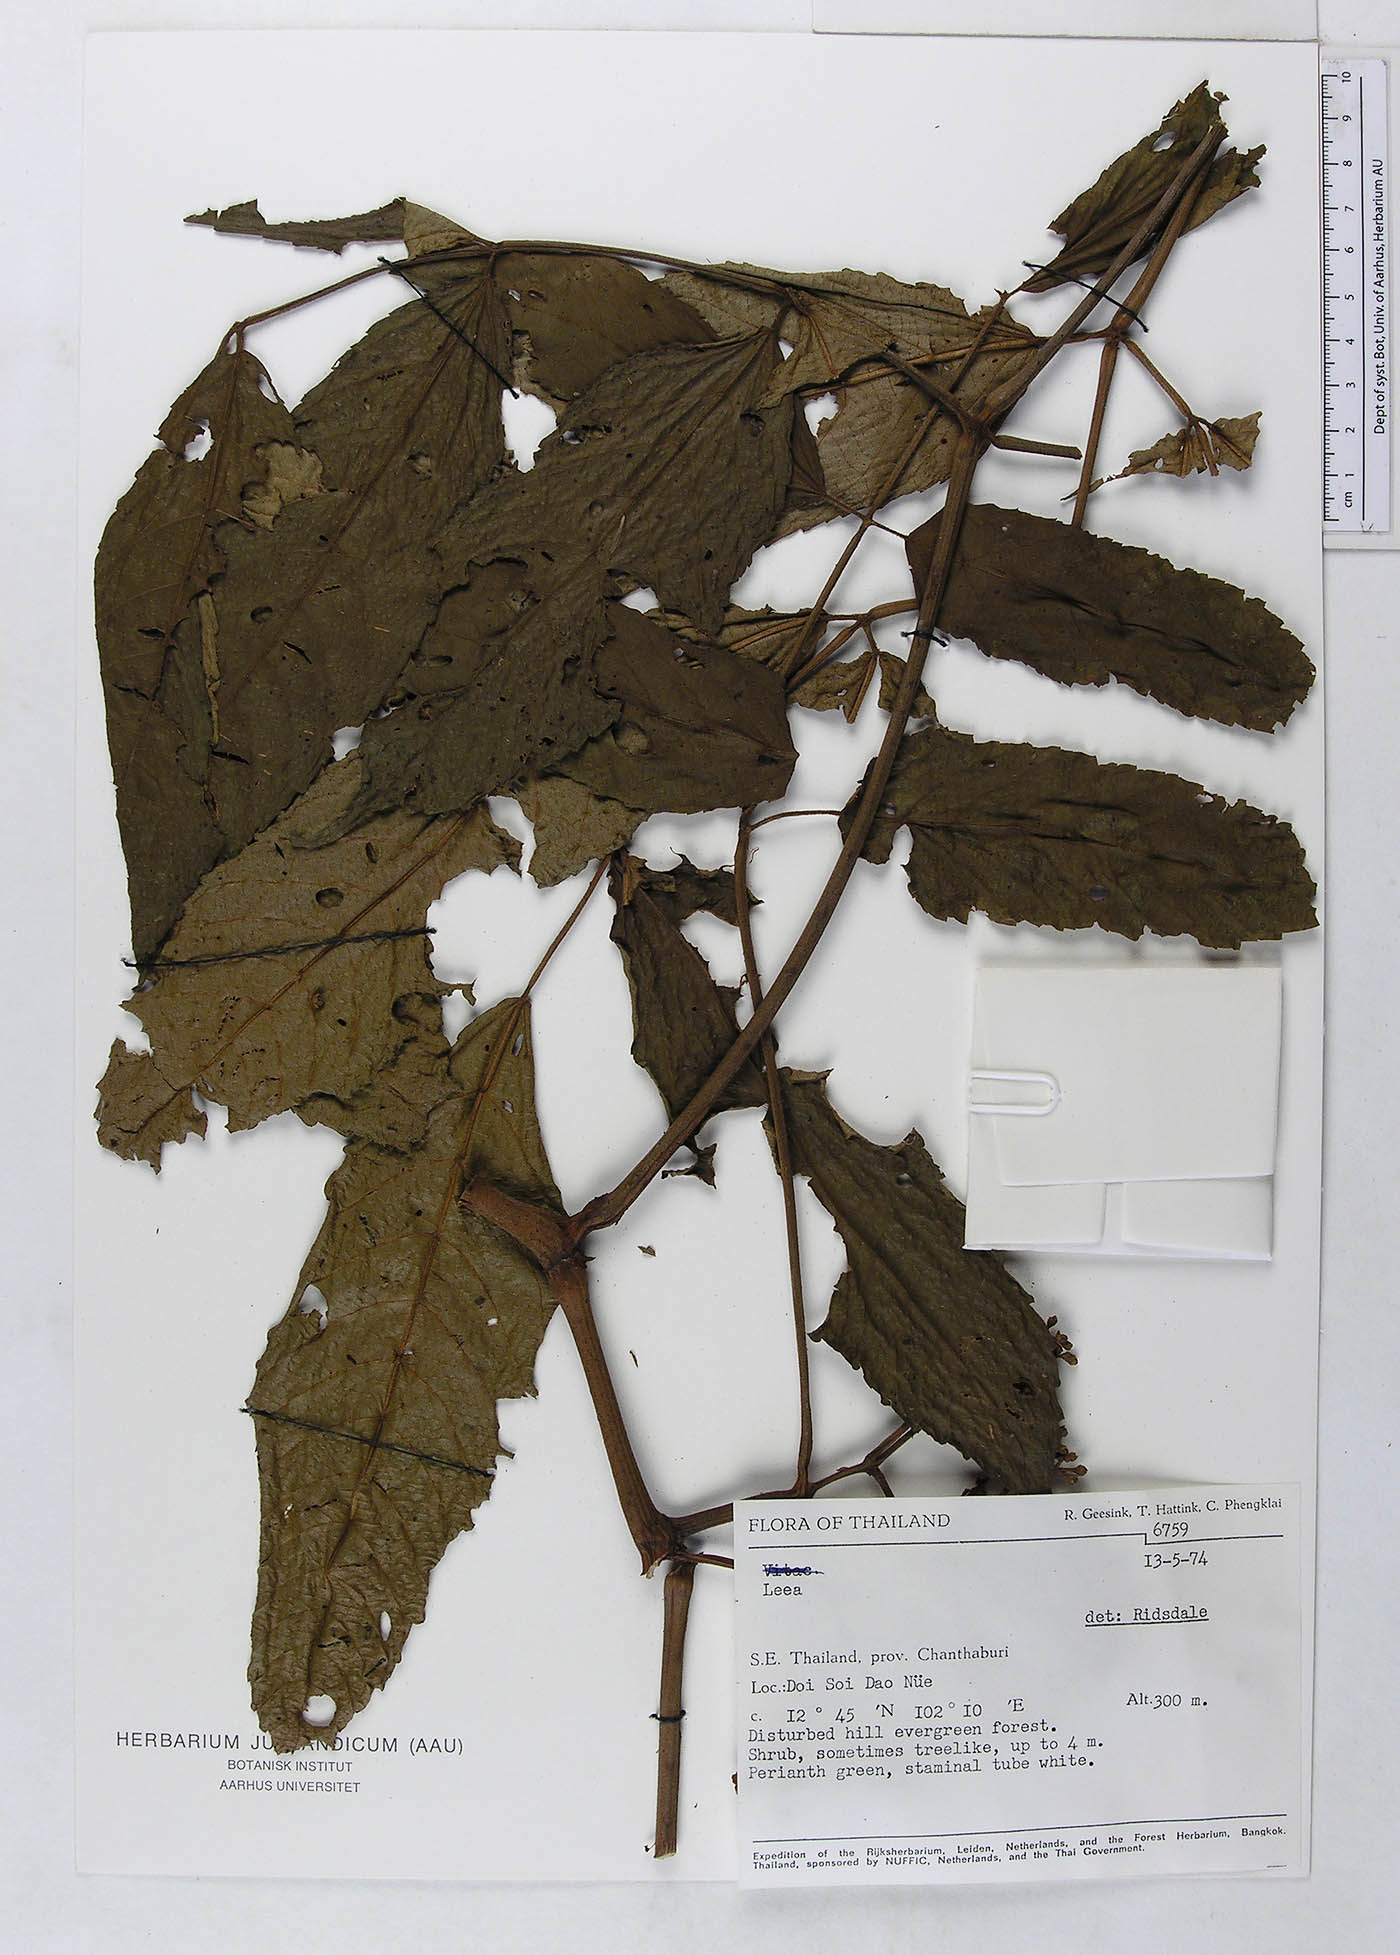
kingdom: Plantae
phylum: Tracheophyta
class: Magnoliopsida
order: Vitales
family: Vitaceae
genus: Leea
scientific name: Leea aequata
